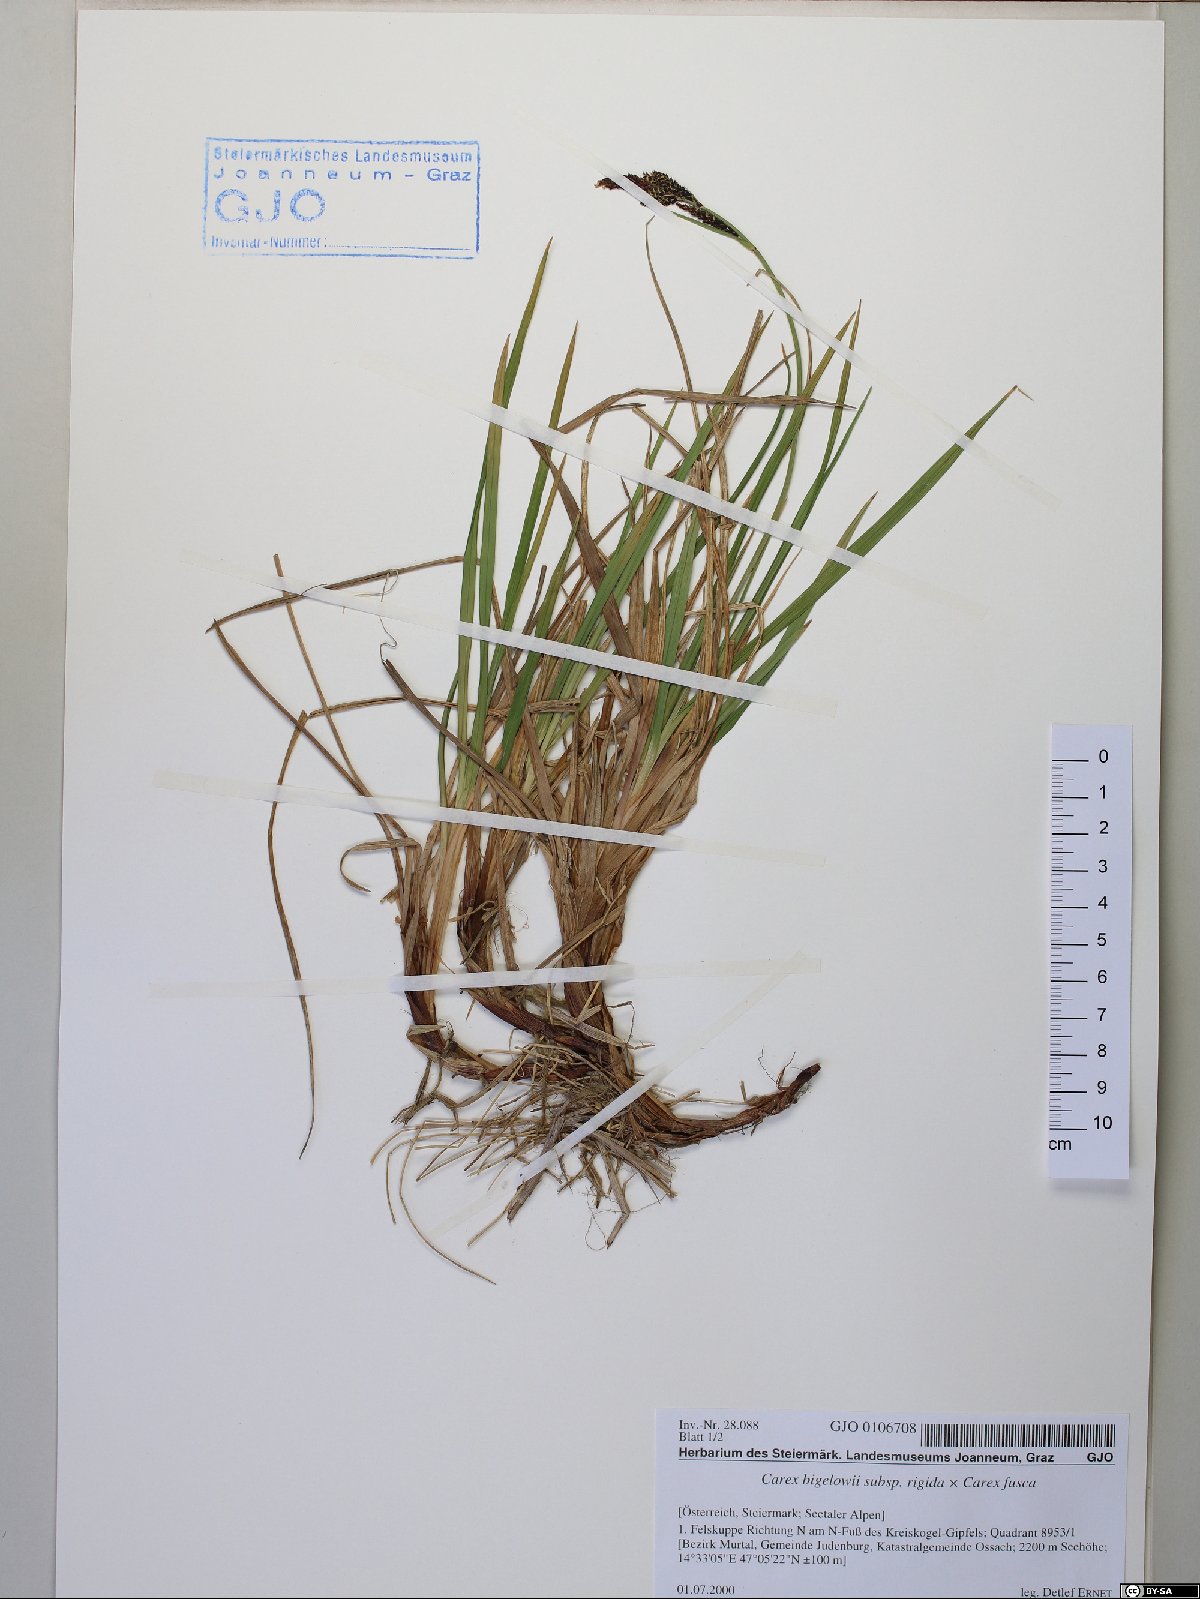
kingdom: Plantae
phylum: Tracheophyta
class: Liliopsida
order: Poales
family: Cyperaceae
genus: Carex
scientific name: Carex bigelowii
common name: Stiff sedge
